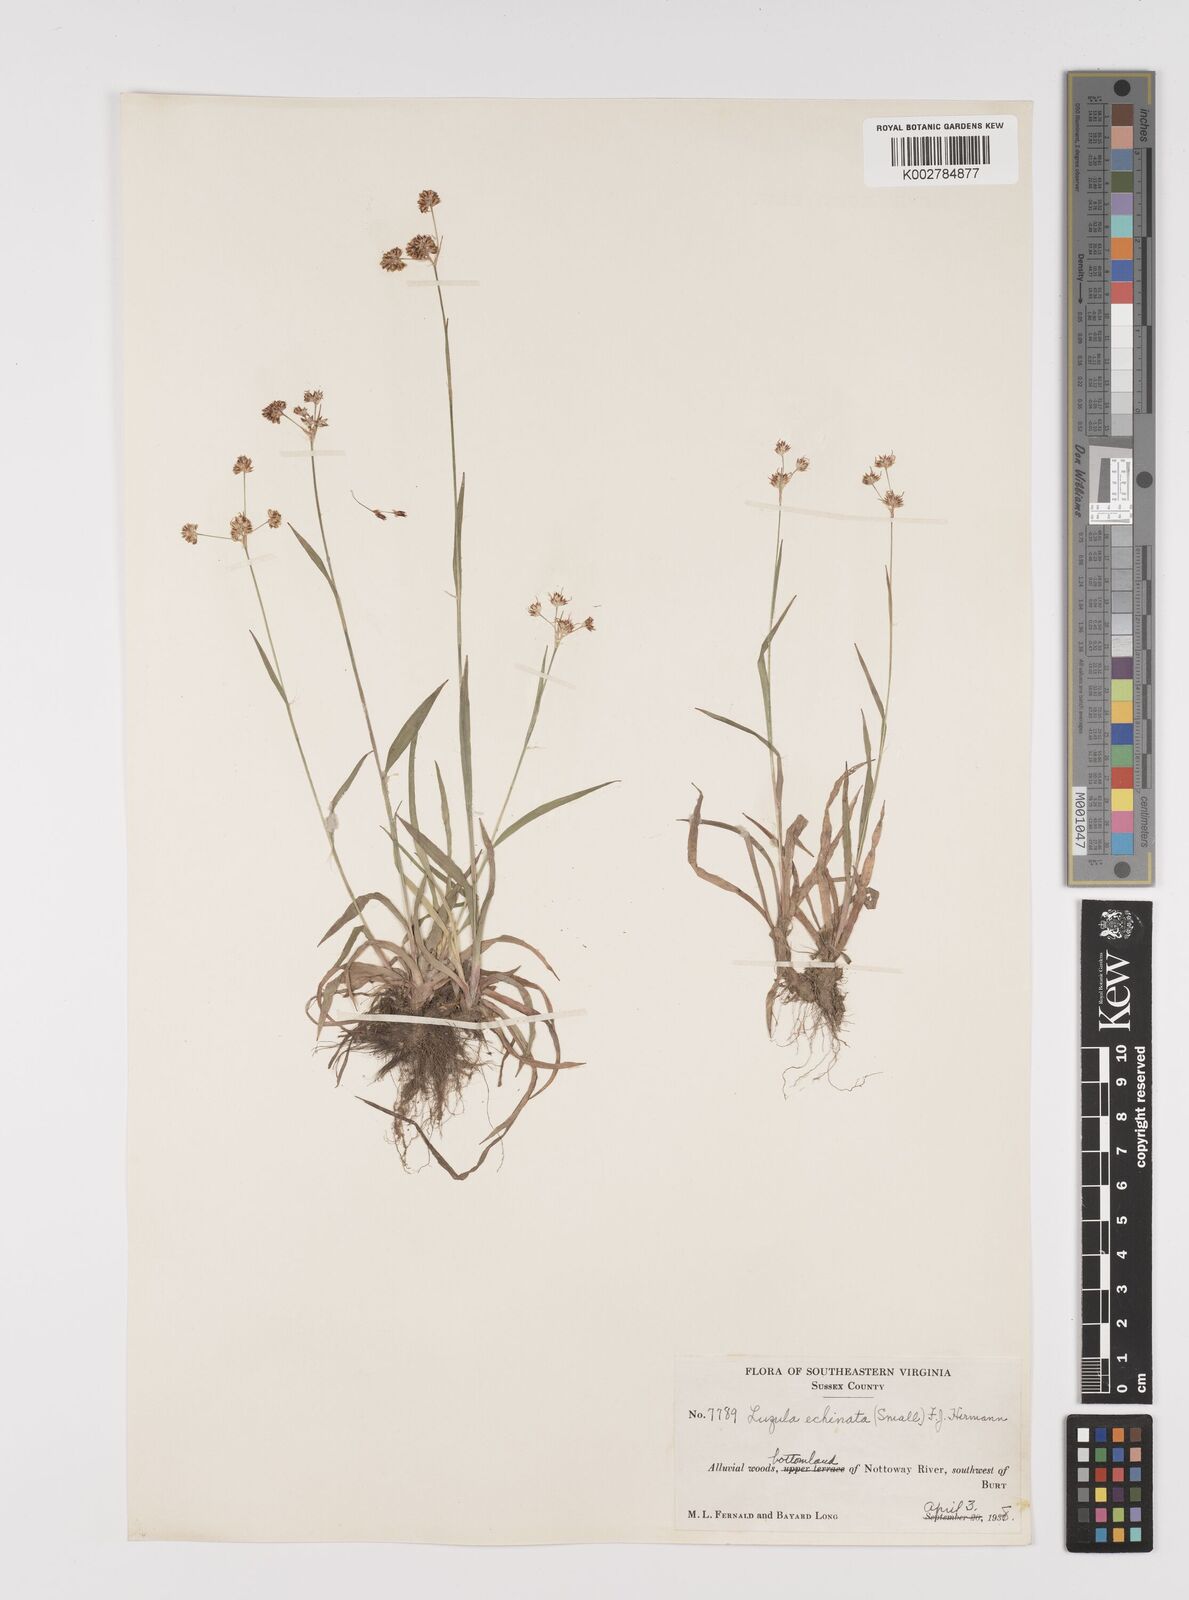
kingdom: Plantae
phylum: Tracheophyta
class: Liliopsida
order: Poales
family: Juncaceae
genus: Luzula
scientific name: Luzula echinata
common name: Hedgehog woodrush
